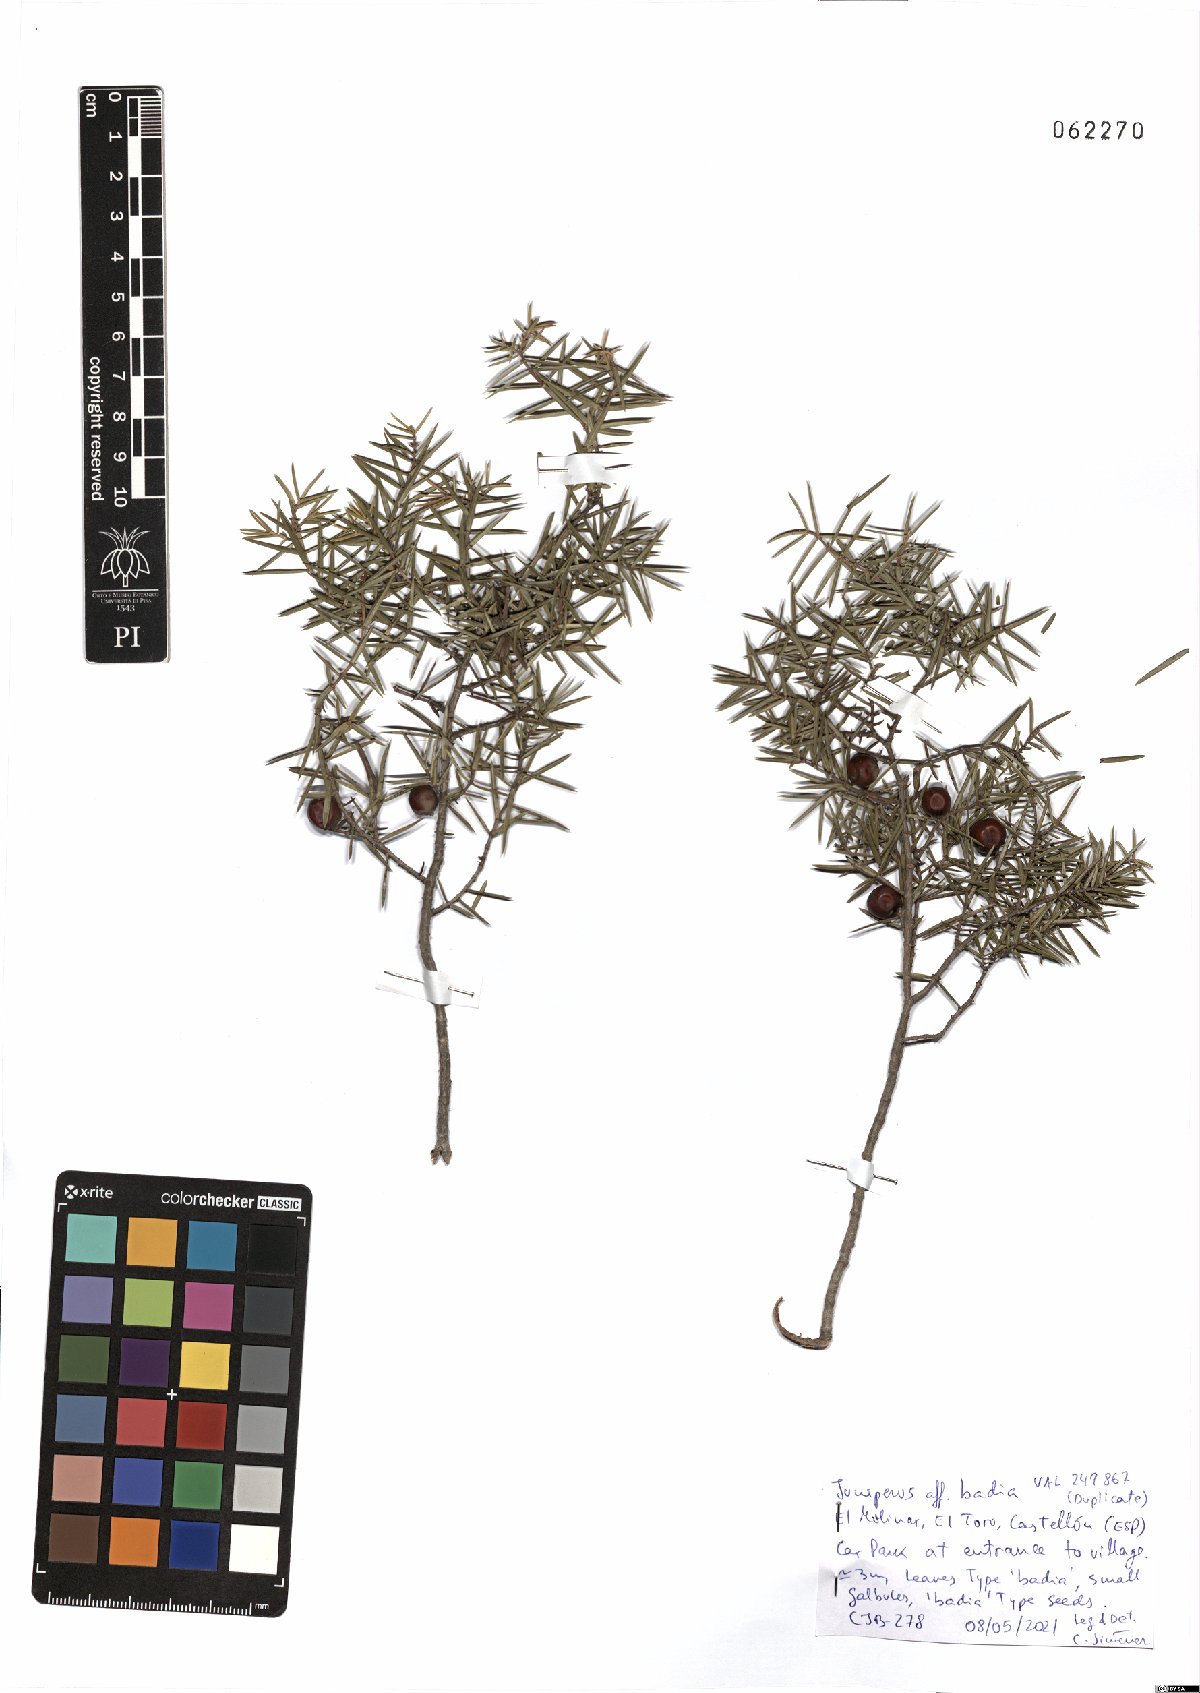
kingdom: Plantae
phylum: Tracheophyta
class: Pinopsida
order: Pinales
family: Cupressaceae
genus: Juniperus
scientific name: Juniperus oxycedrus
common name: Prickly juniper
